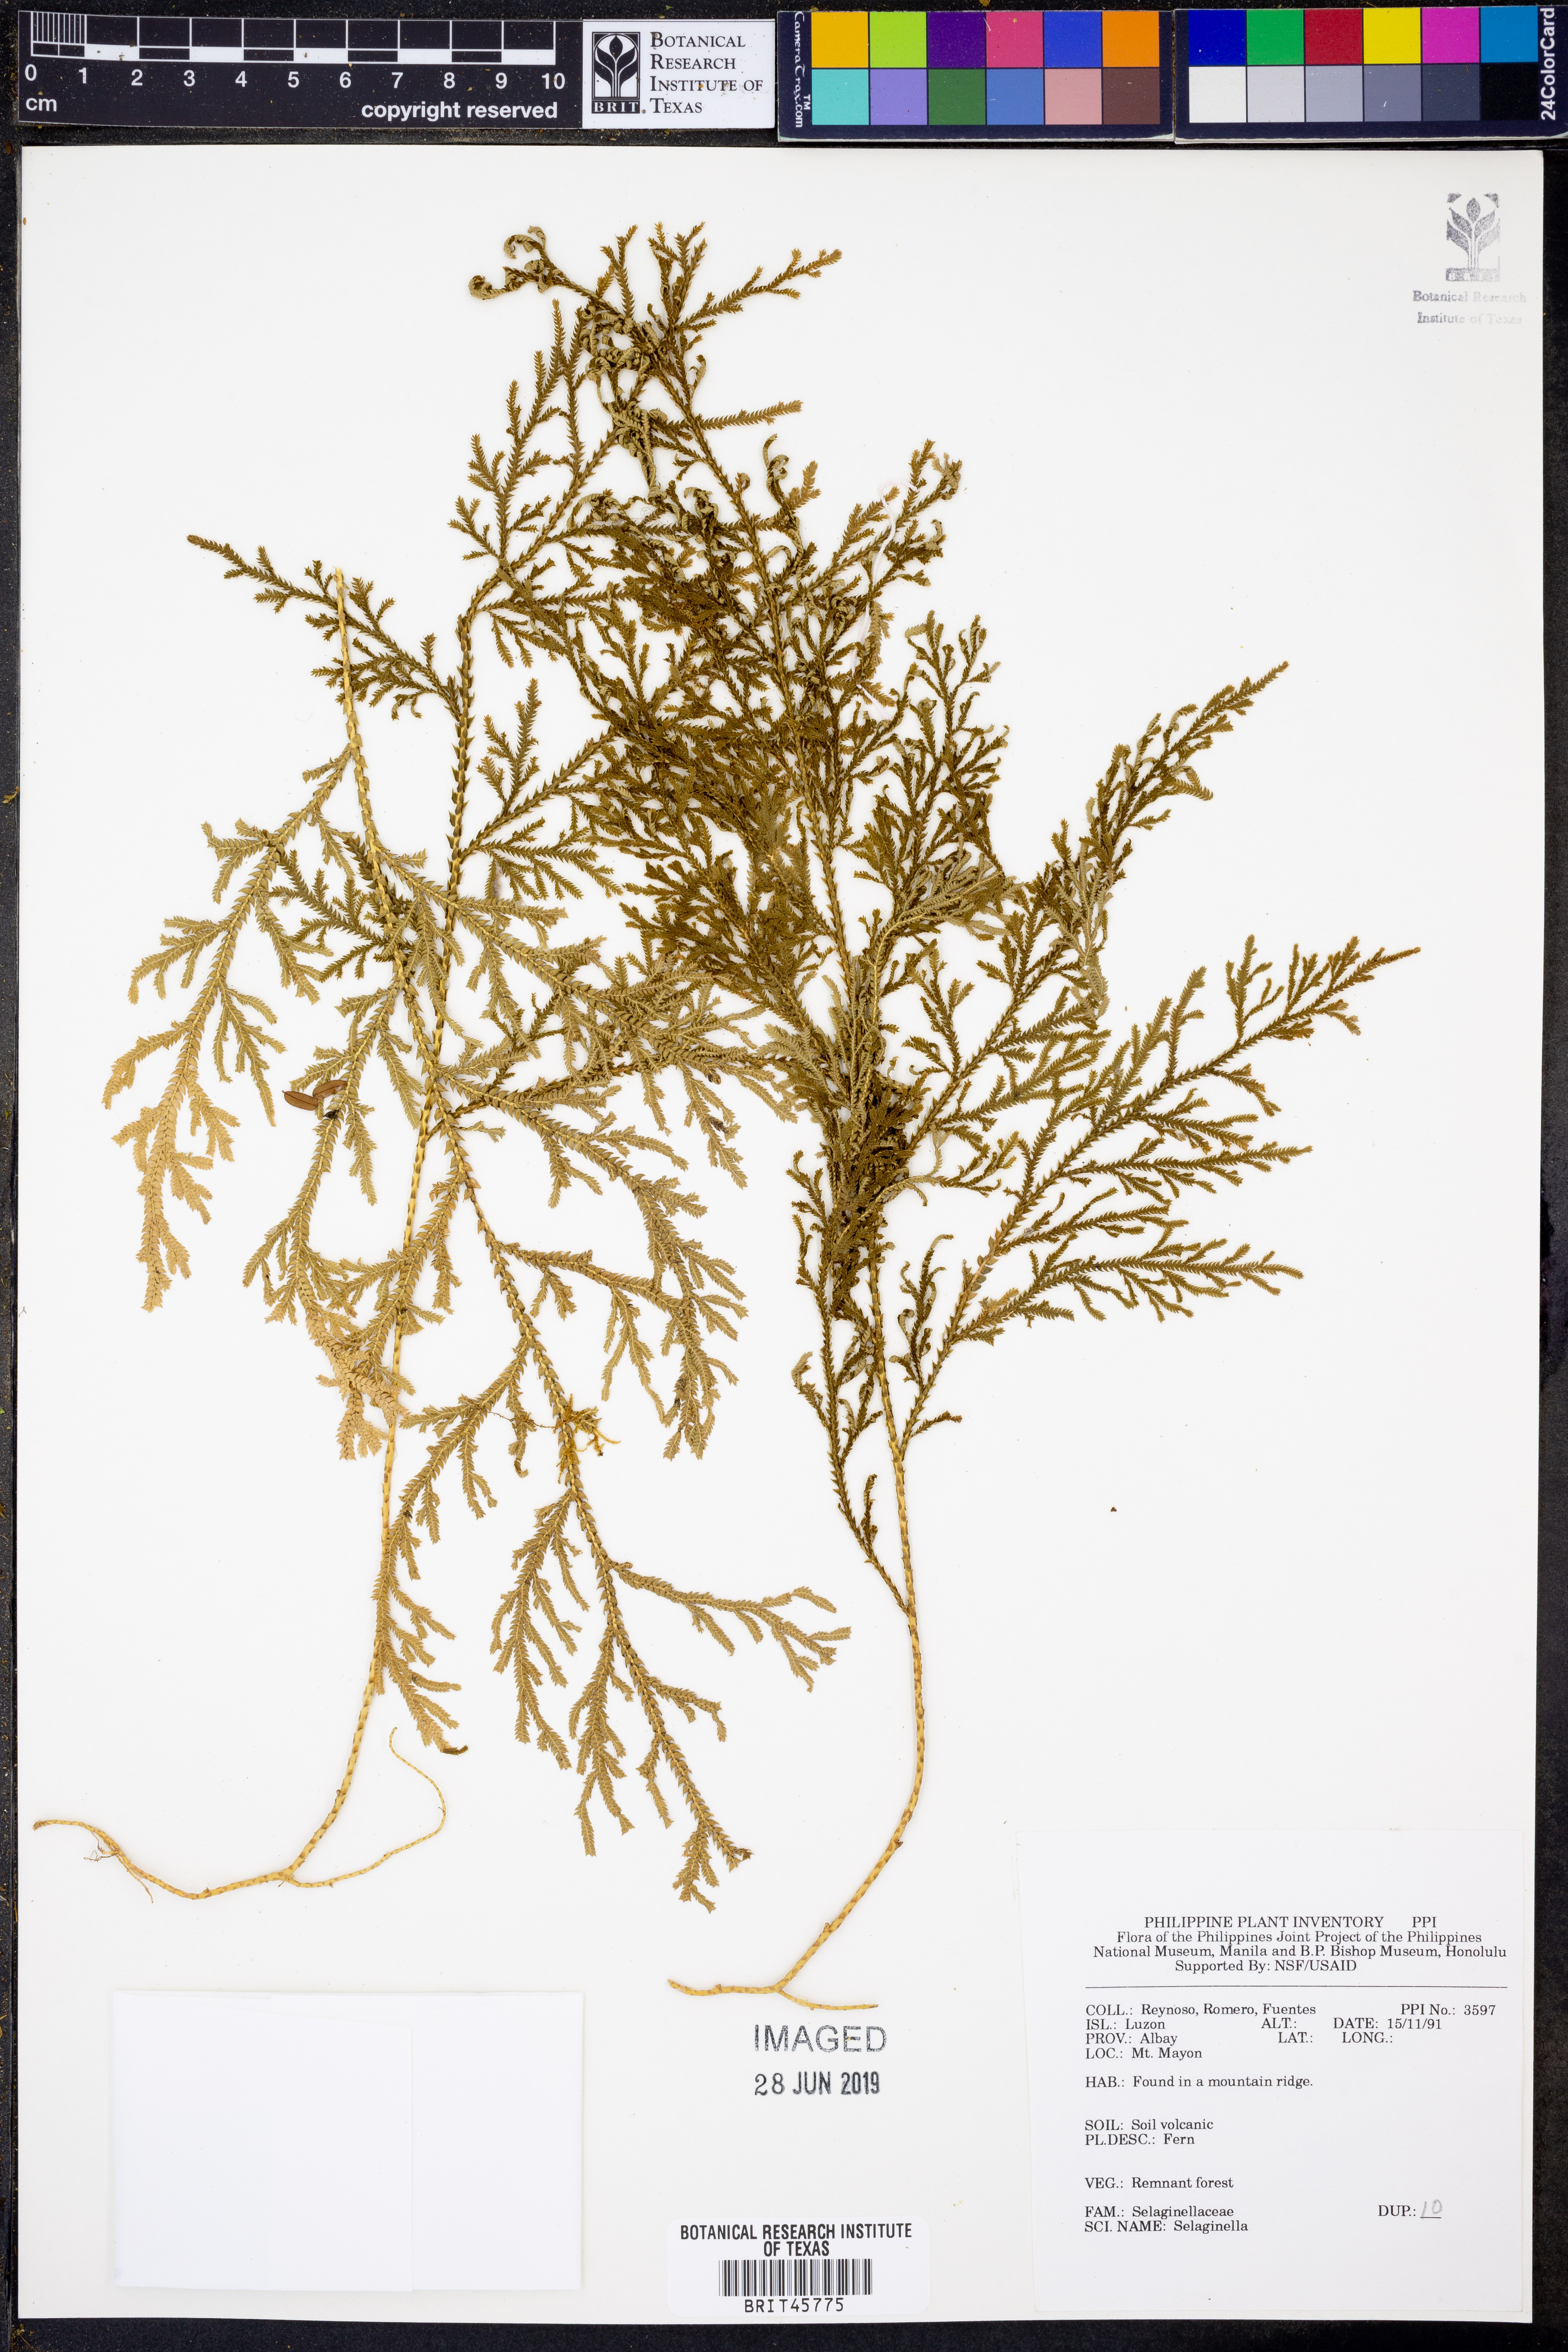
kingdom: Plantae
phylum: Tracheophyta
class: Lycopodiopsida
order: Selaginellales
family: Selaginellaceae
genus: Selaginella
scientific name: Selaginella
